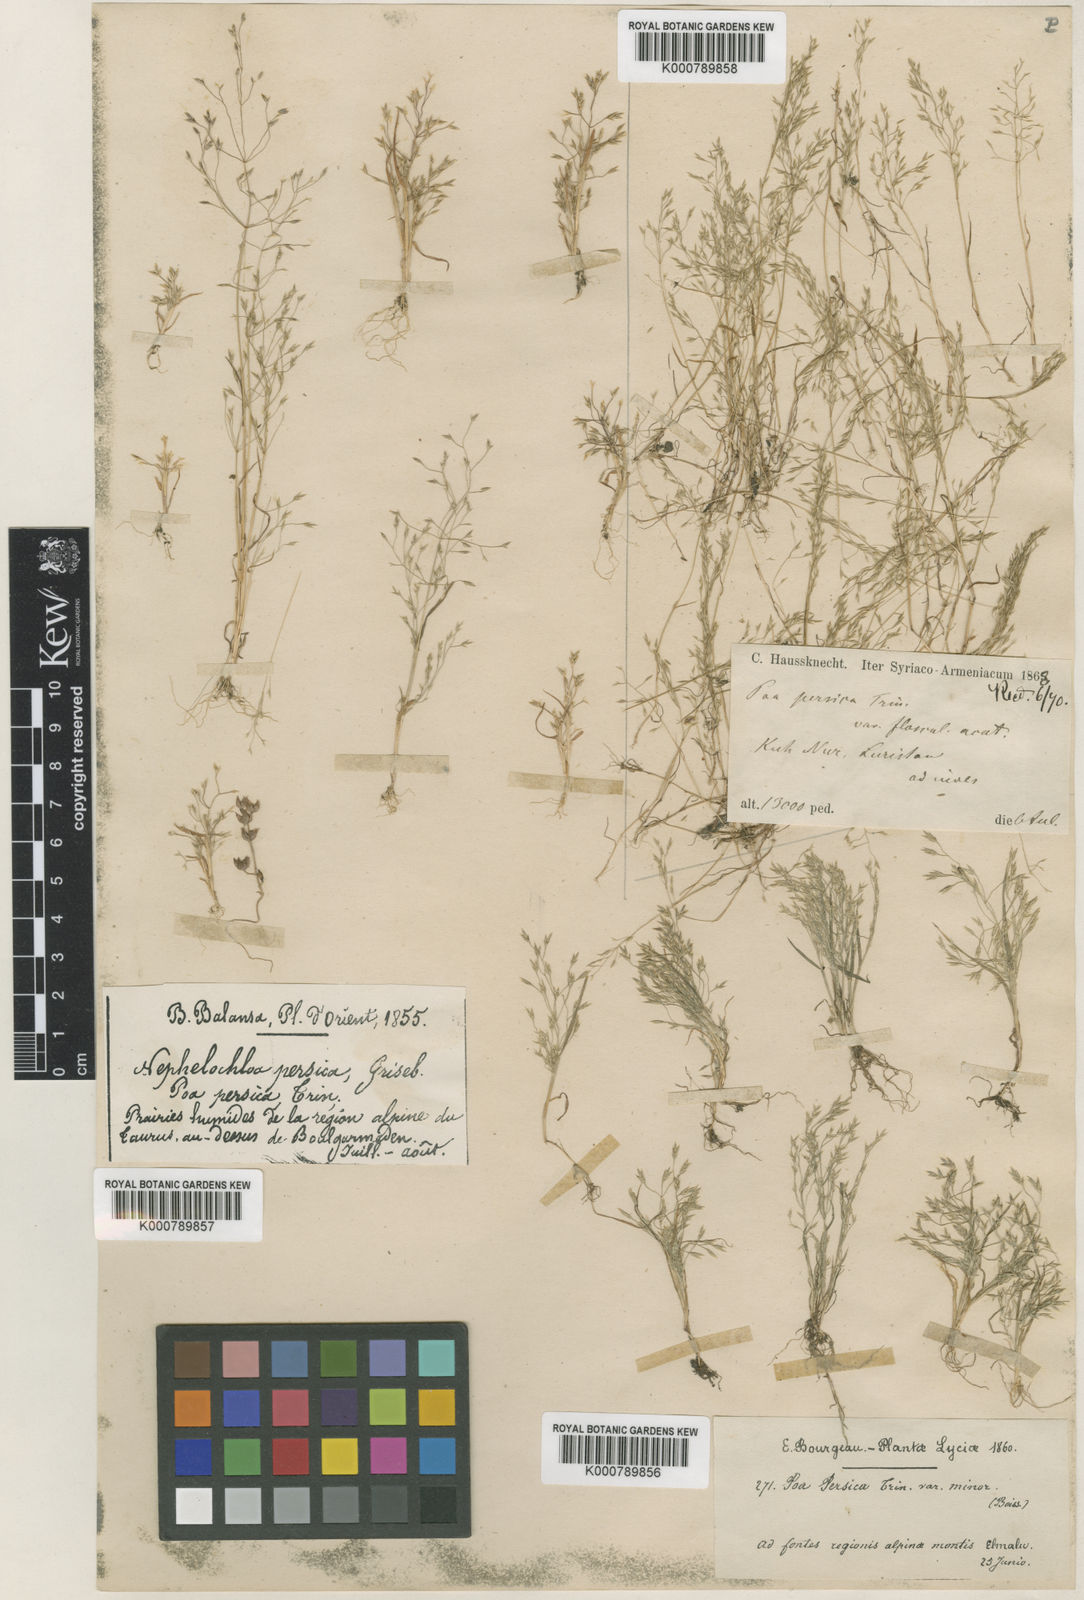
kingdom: Plantae
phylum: Tracheophyta
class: Liliopsida
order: Poales
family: Poaceae
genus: Poa
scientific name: Poa diaphora
